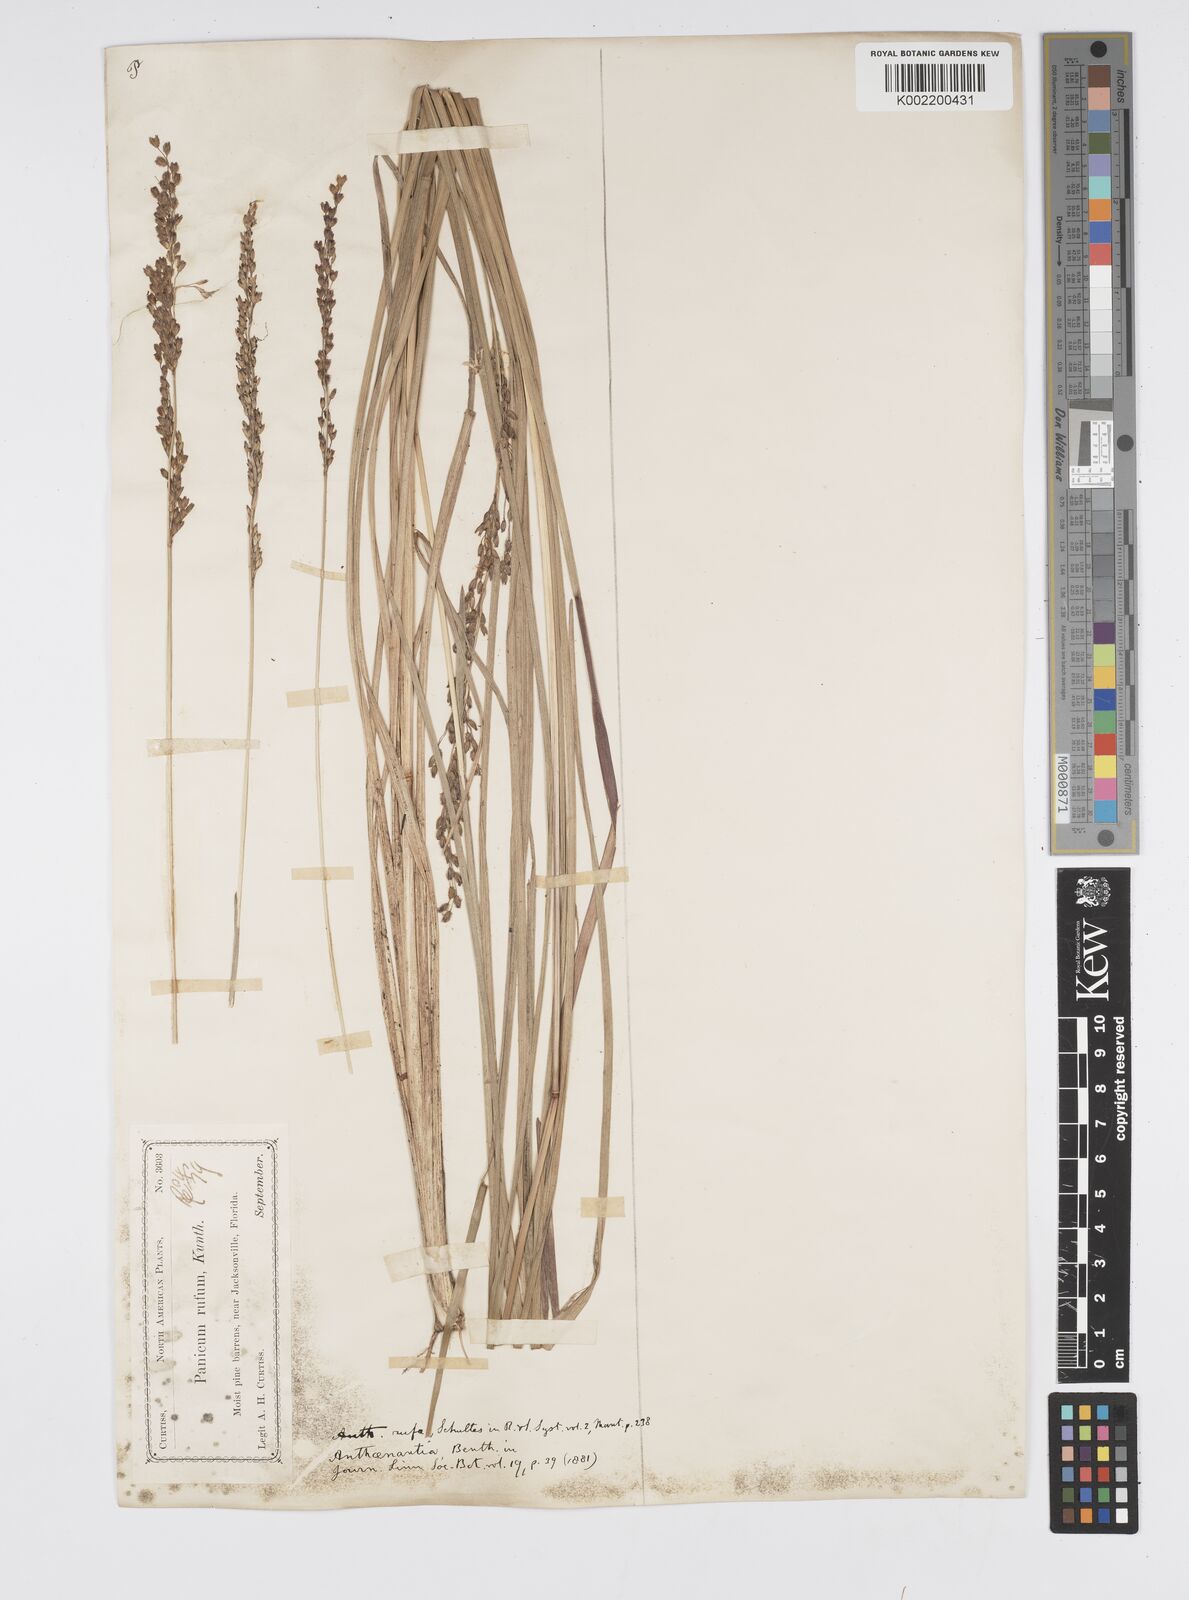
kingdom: Plantae
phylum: Tracheophyta
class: Liliopsida
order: Poales
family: Poaceae
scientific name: Poaceae
